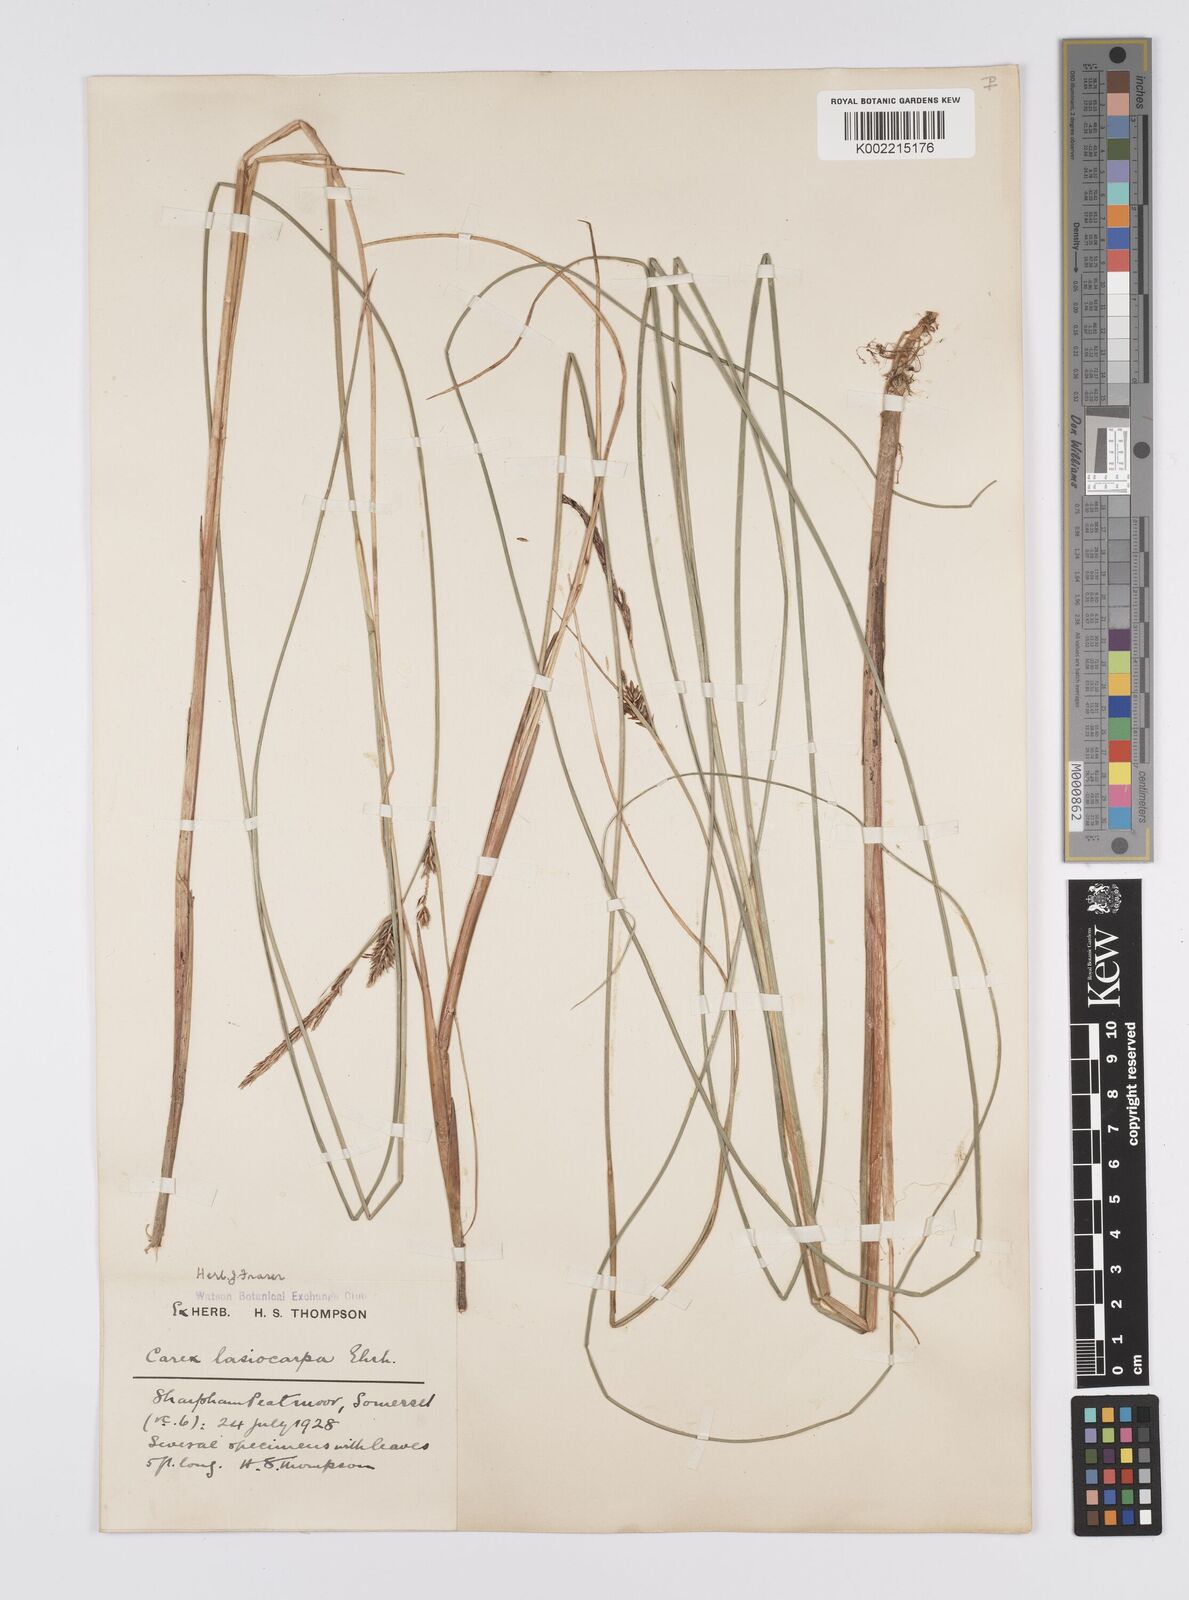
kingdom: Plantae
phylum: Tracheophyta
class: Liliopsida
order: Poales
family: Cyperaceae
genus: Carex
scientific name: Carex lasiocarpa
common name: Slender sedge
